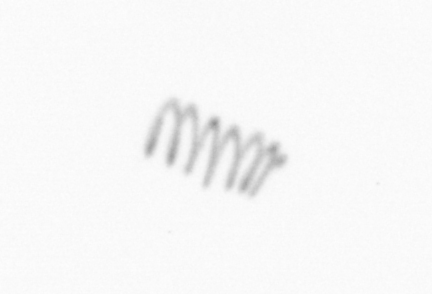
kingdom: Chromista
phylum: Ochrophyta
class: Bacillariophyceae
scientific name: Bacillariophyceae
